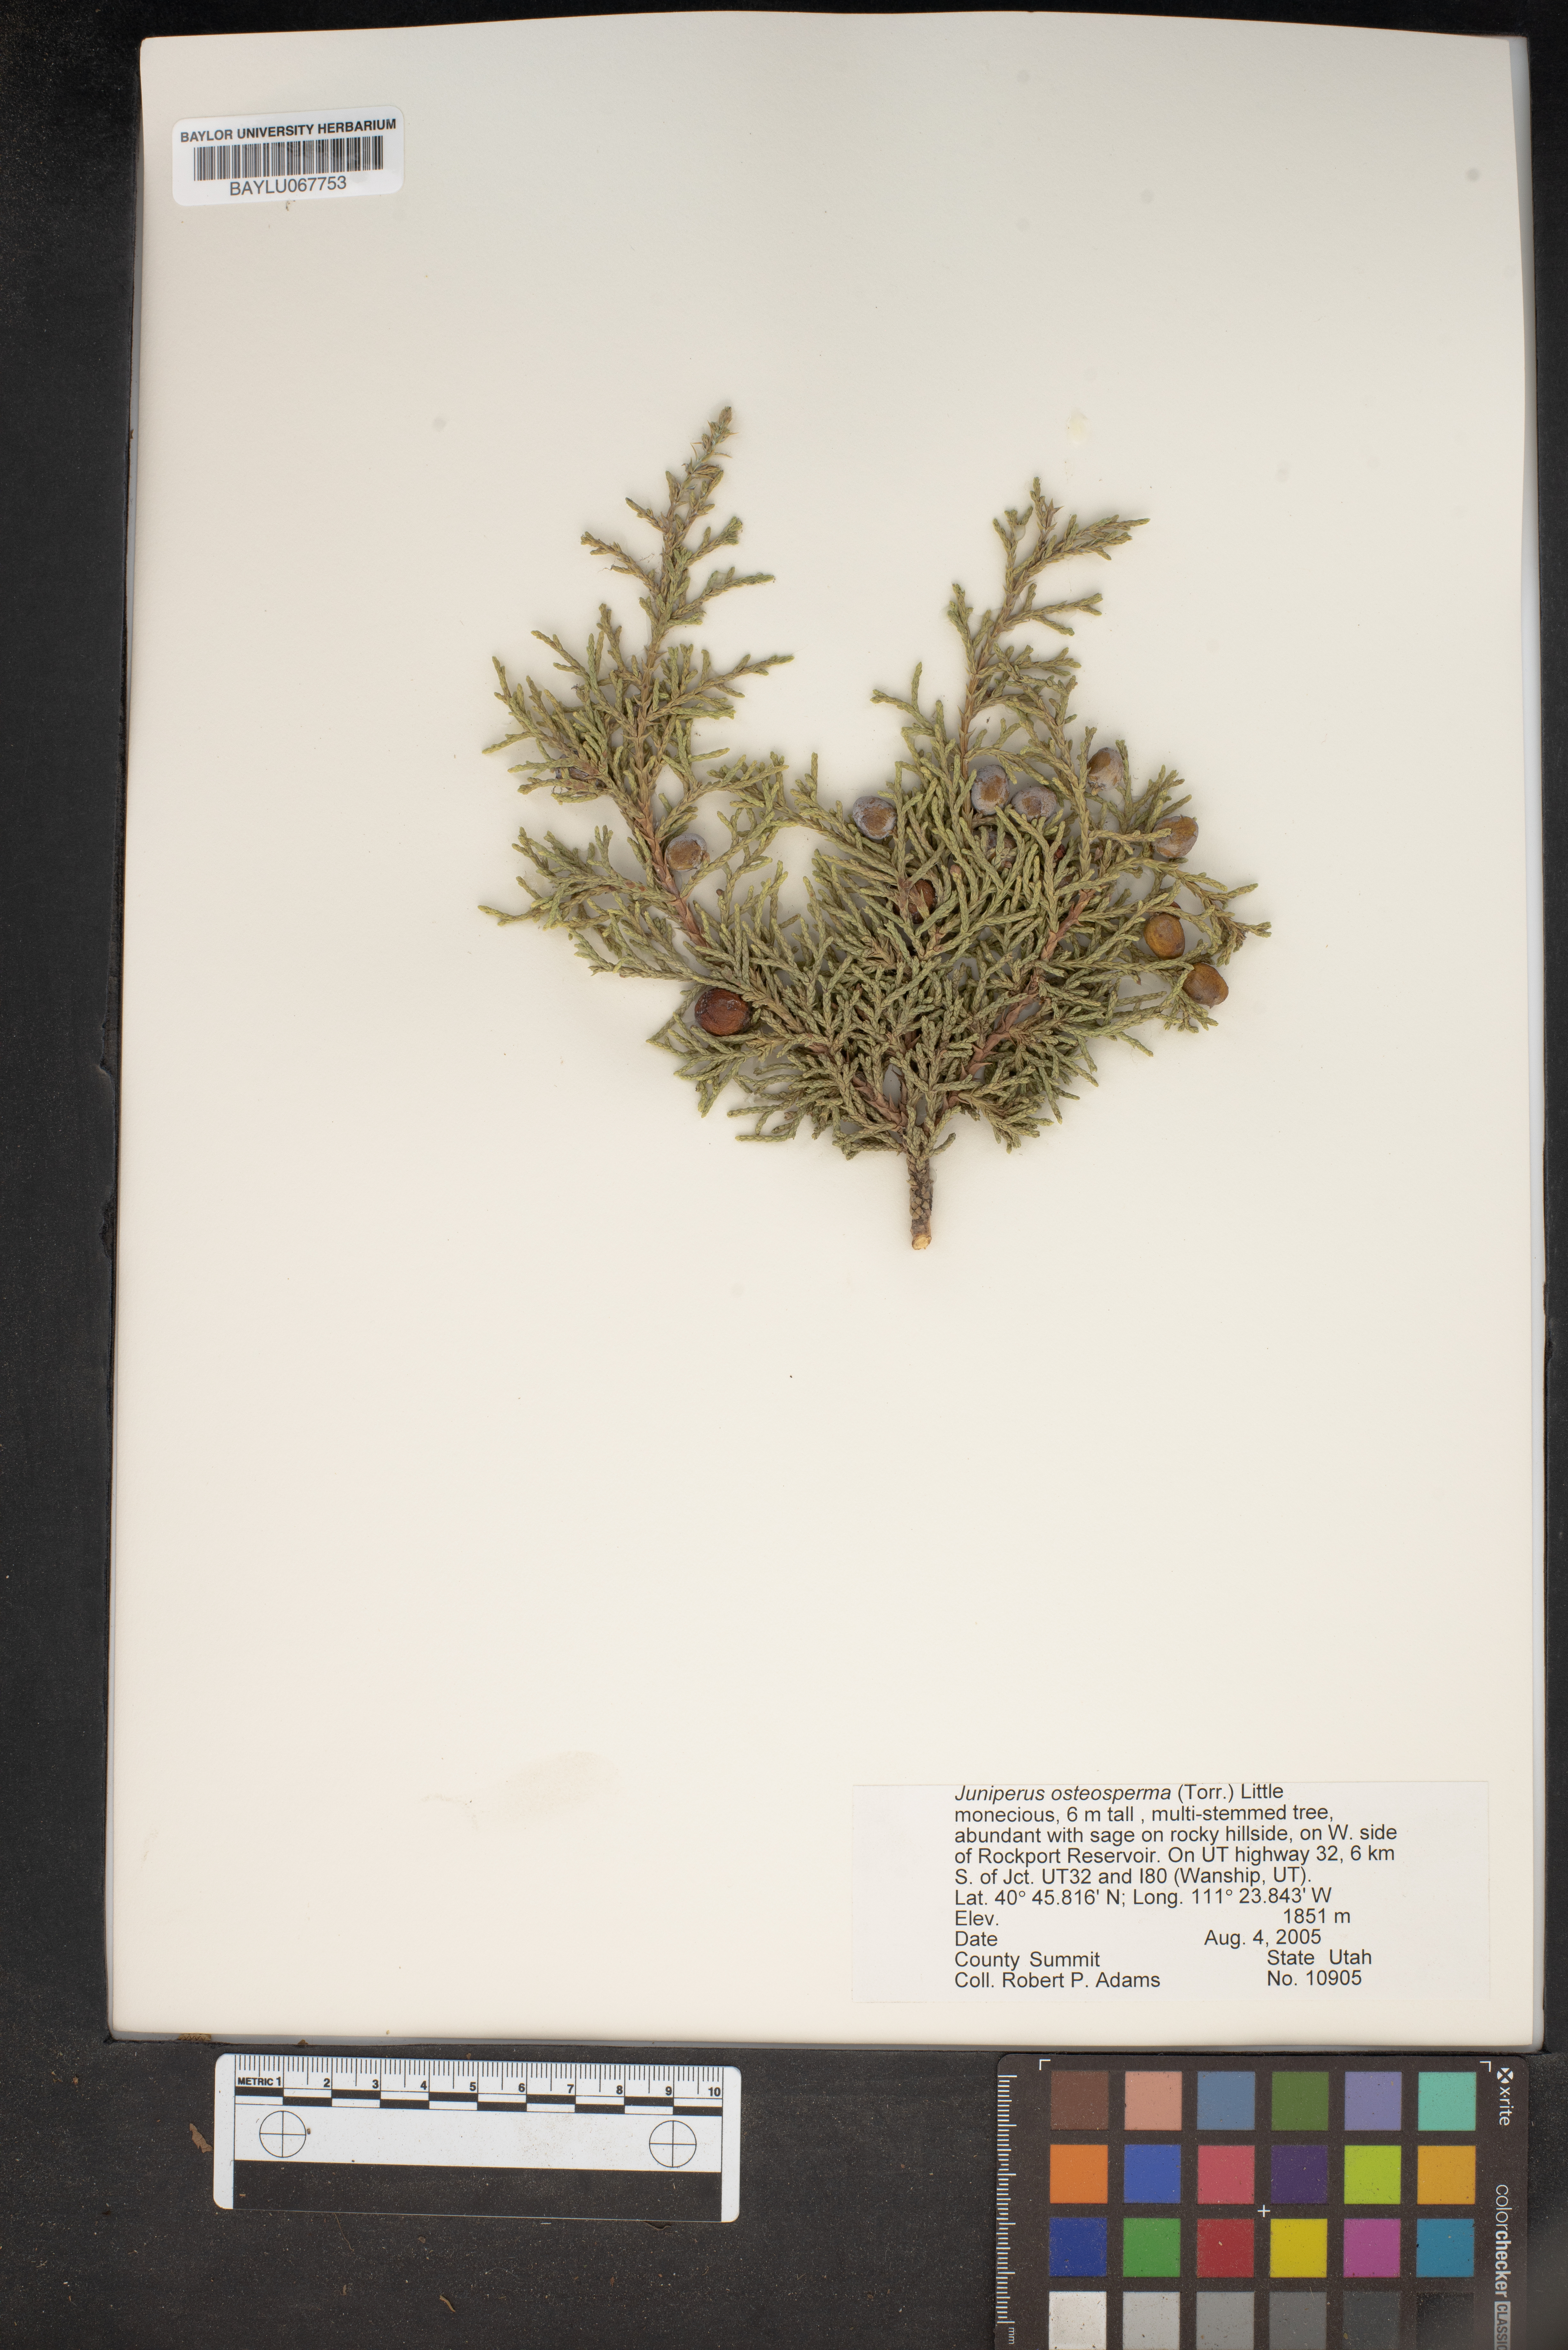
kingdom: Plantae
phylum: Tracheophyta
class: Pinopsida
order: Pinales
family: Cupressaceae
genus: Juniperus
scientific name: Juniperus osteosperma
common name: Utah juniper
